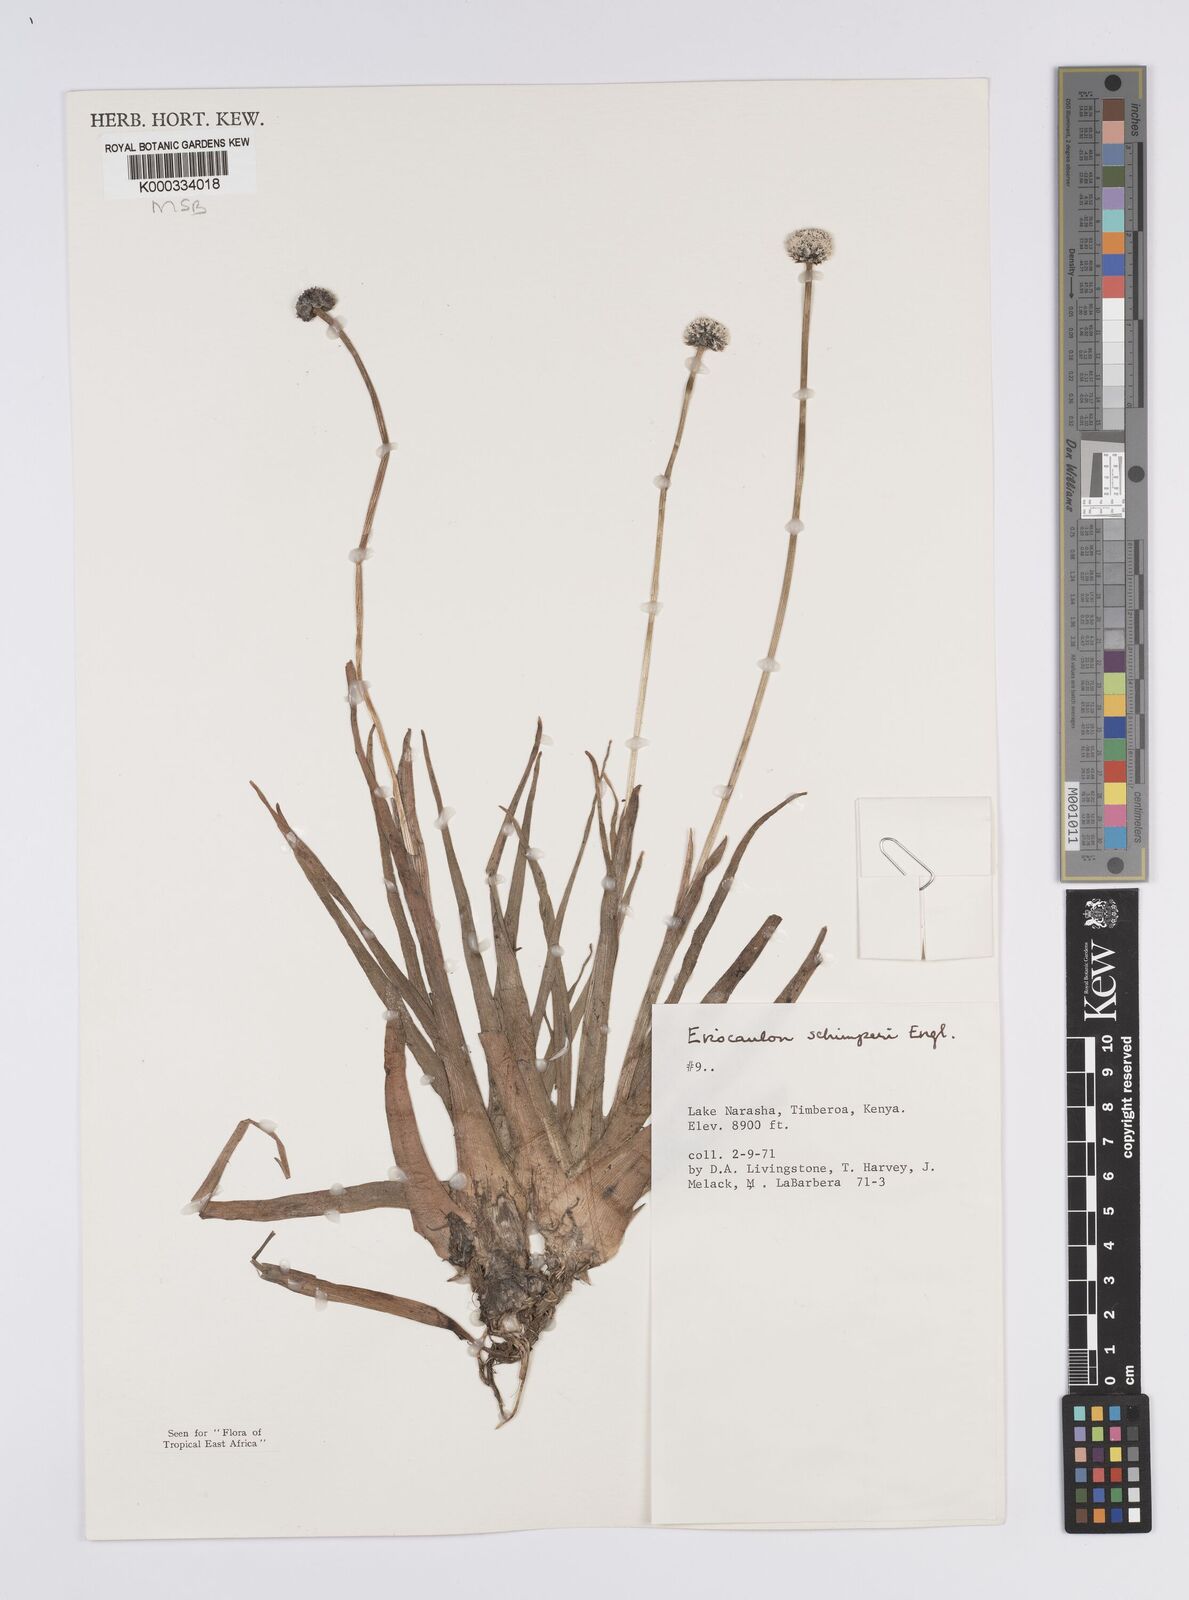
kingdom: Plantae
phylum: Tracheophyta
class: Liliopsida
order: Poales
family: Eriocaulaceae
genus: Eriocaulon
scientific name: Eriocaulon
